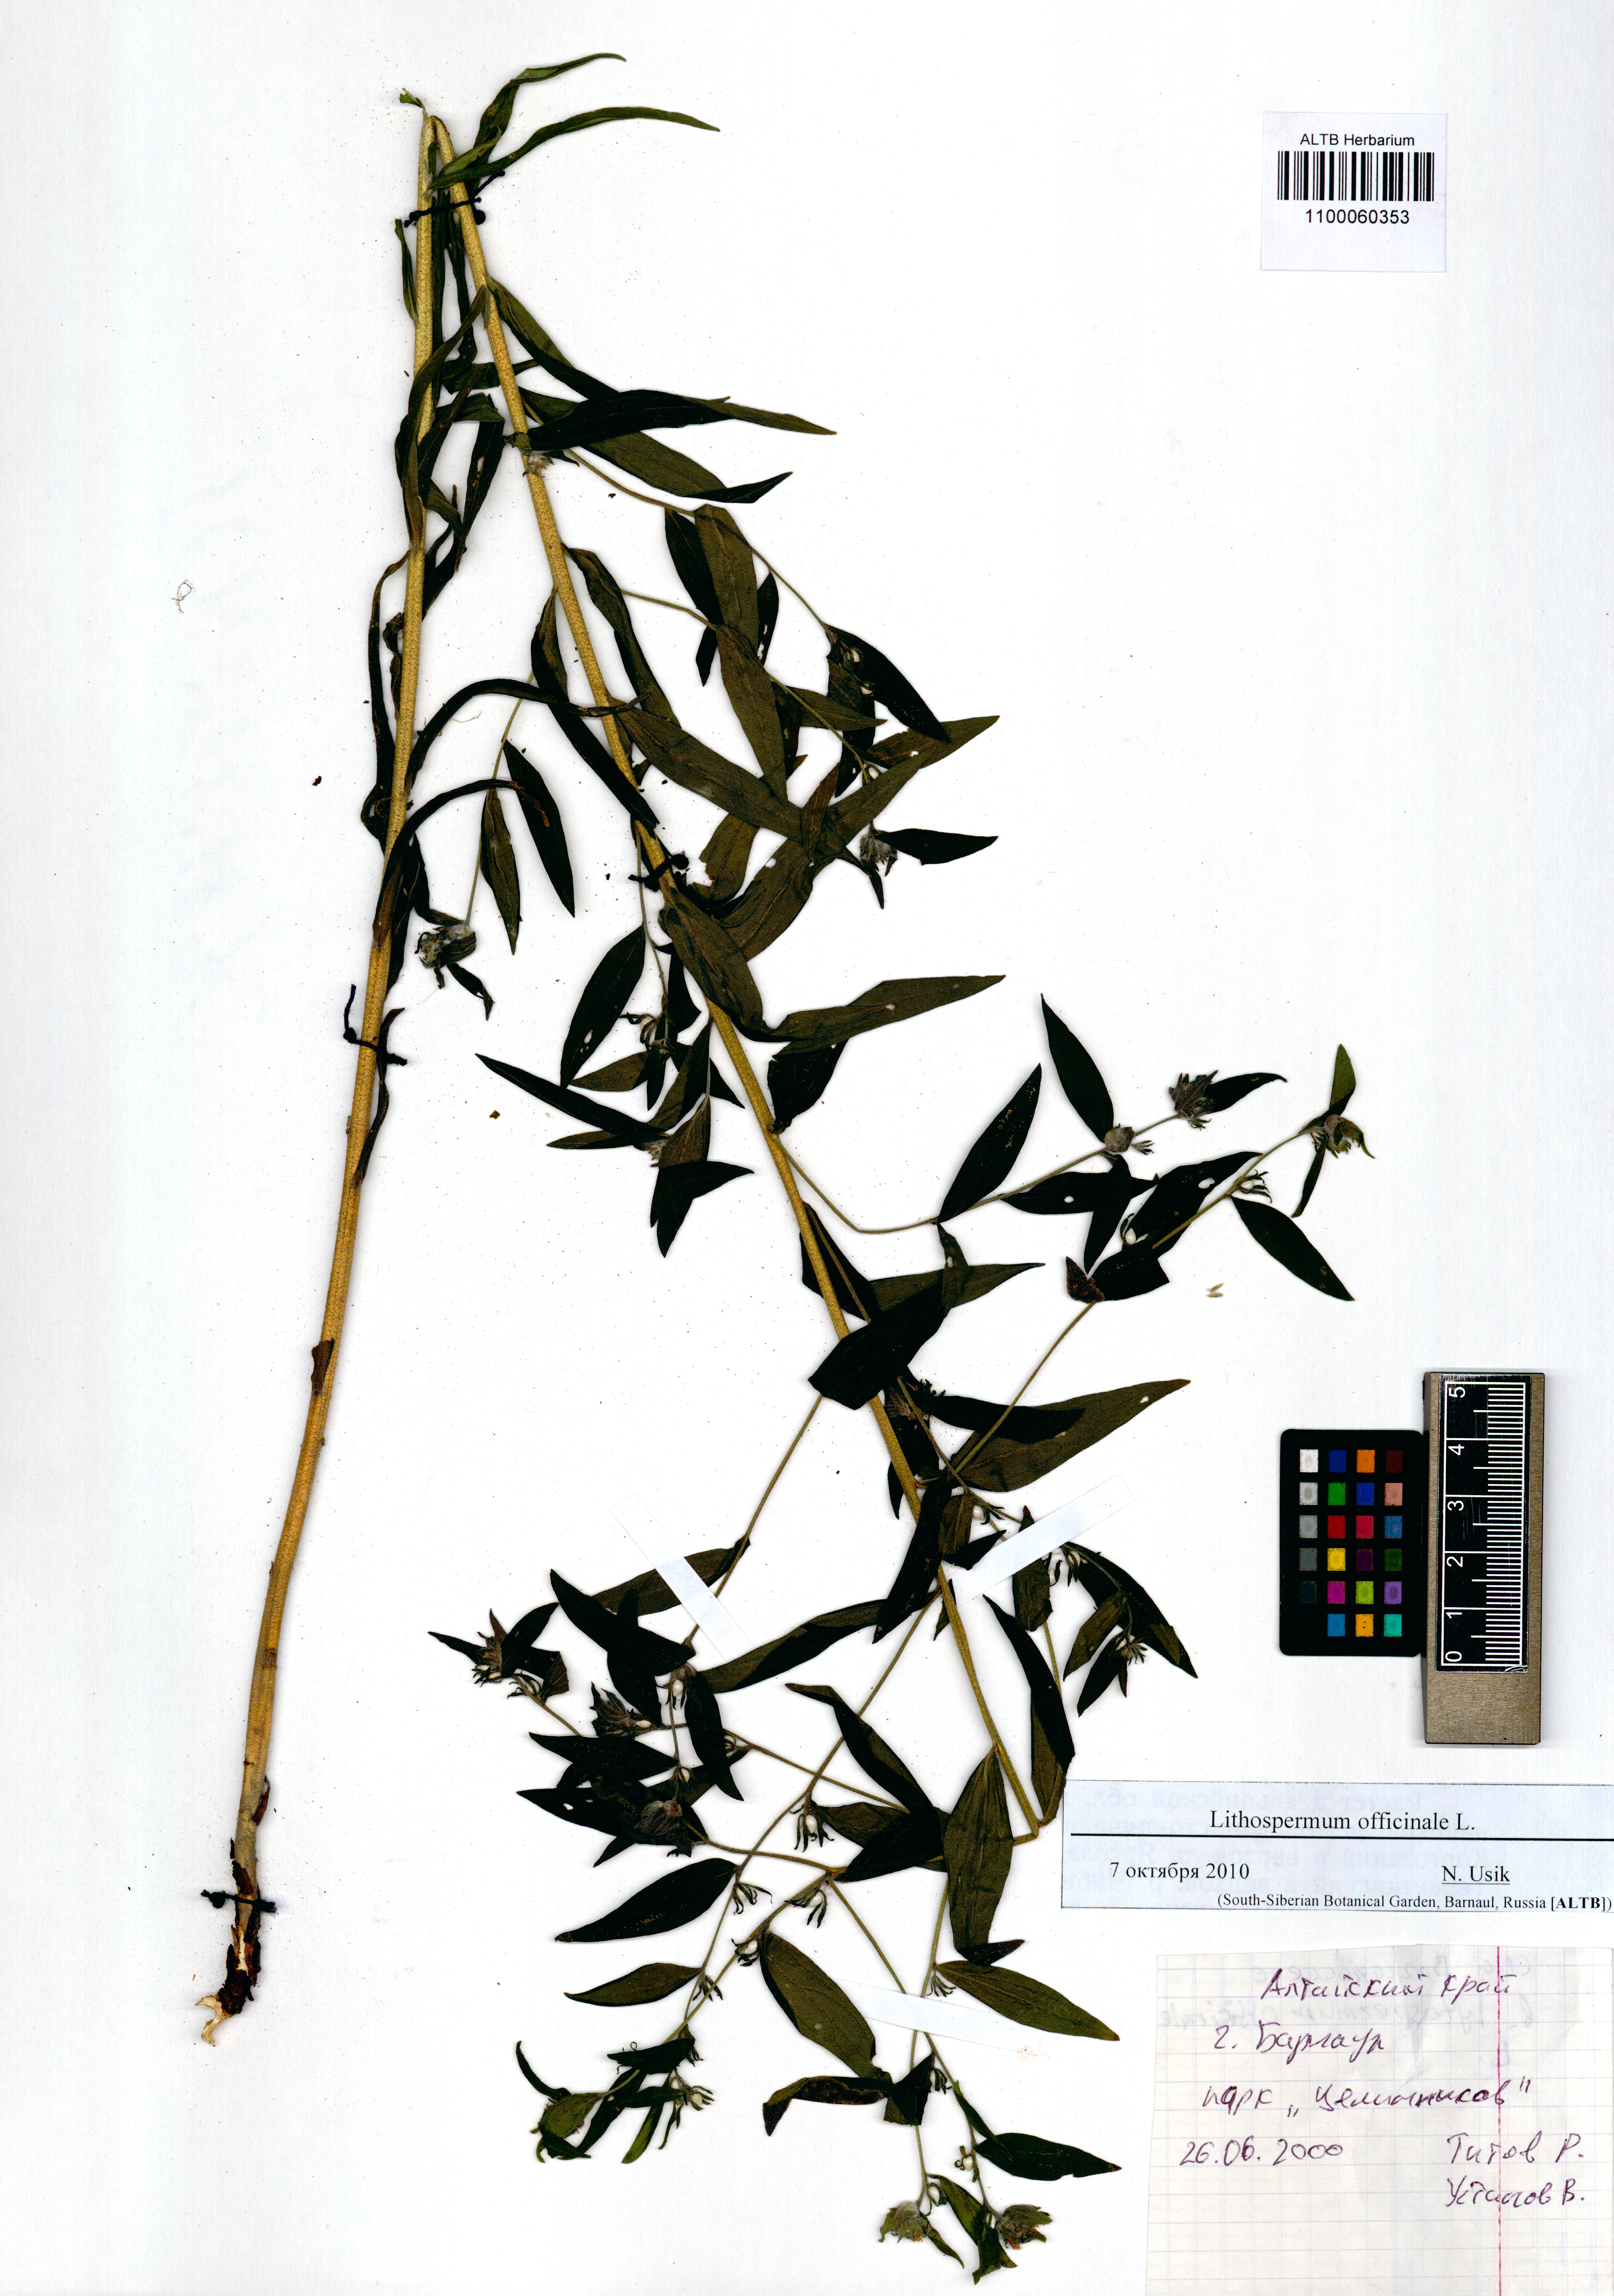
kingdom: Plantae
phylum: Tracheophyta
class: Magnoliopsida
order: Boraginales
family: Boraginaceae
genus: Lithospermum
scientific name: Lithospermum officinale
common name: Common gromwell
